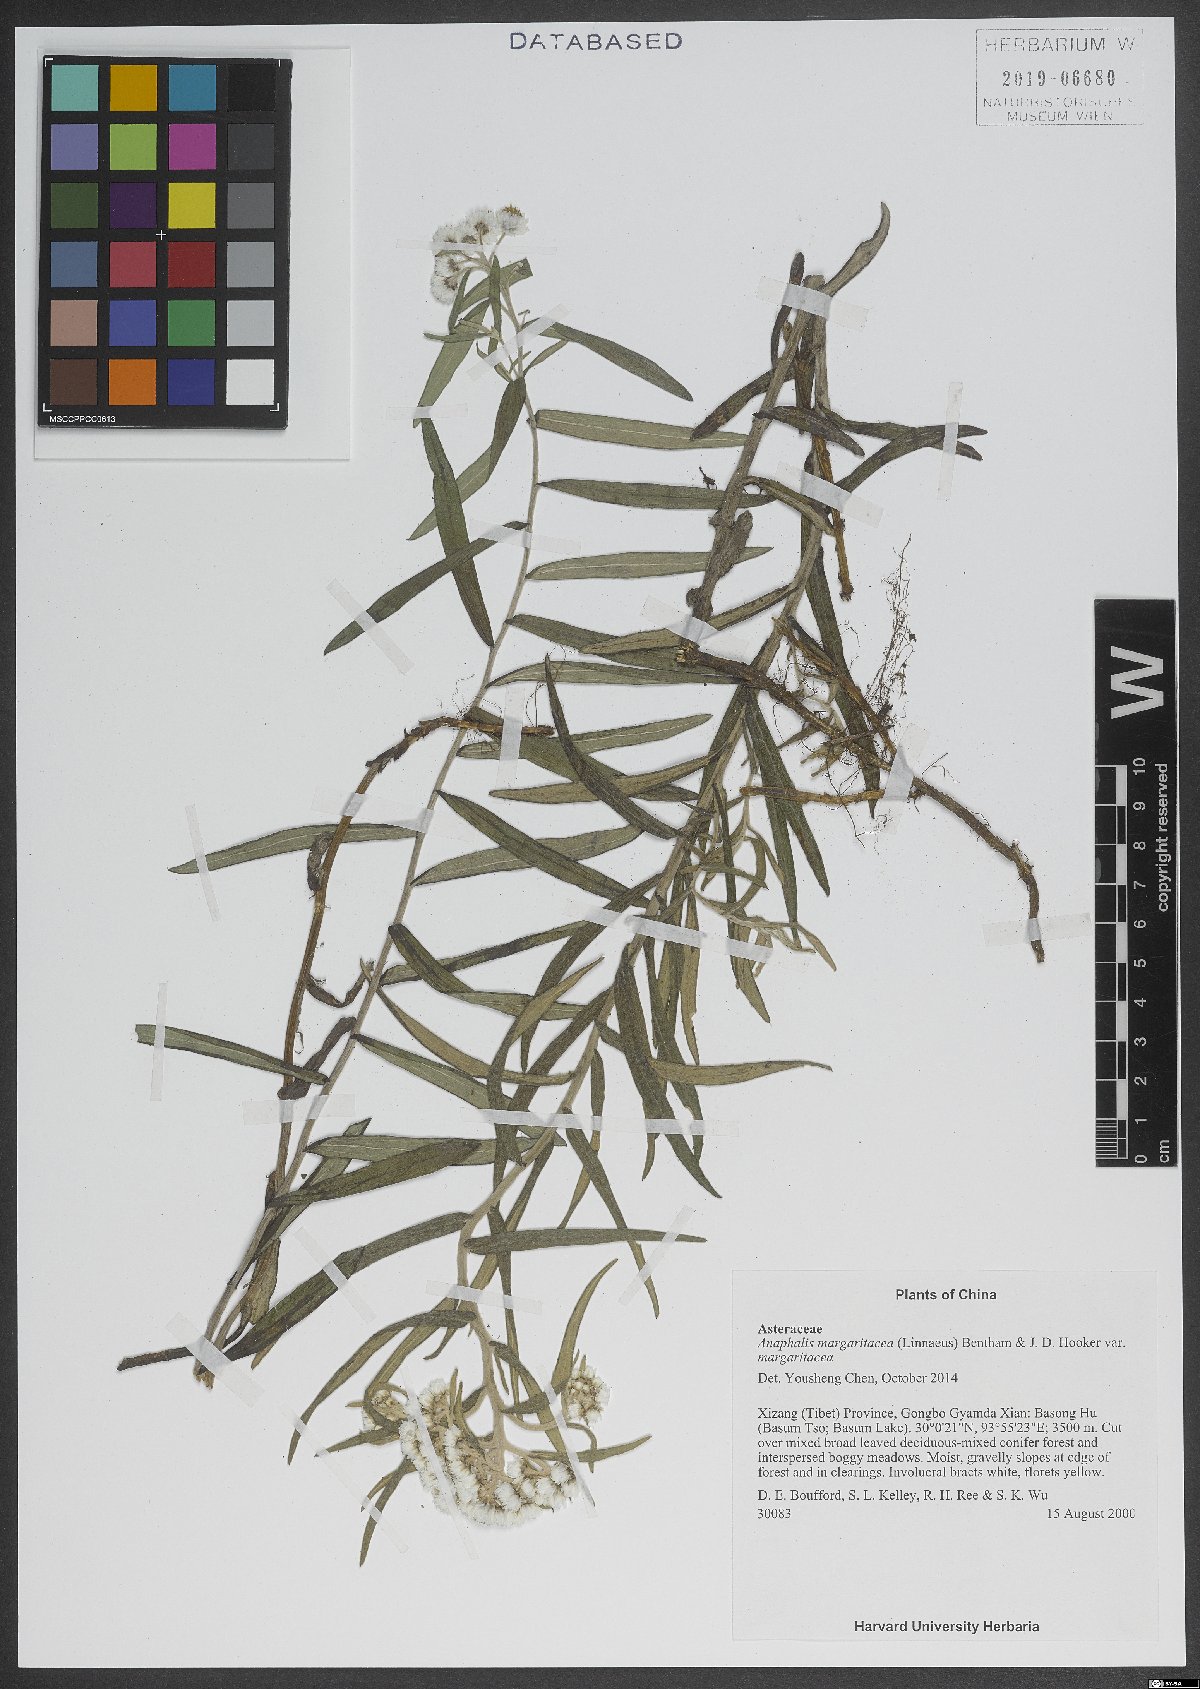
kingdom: Plantae
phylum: Tracheophyta
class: Magnoliopsida
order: Asterales
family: Asteraceae
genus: Anaphalis
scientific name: Anaphalis margaritacea
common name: Pearly everlasting
